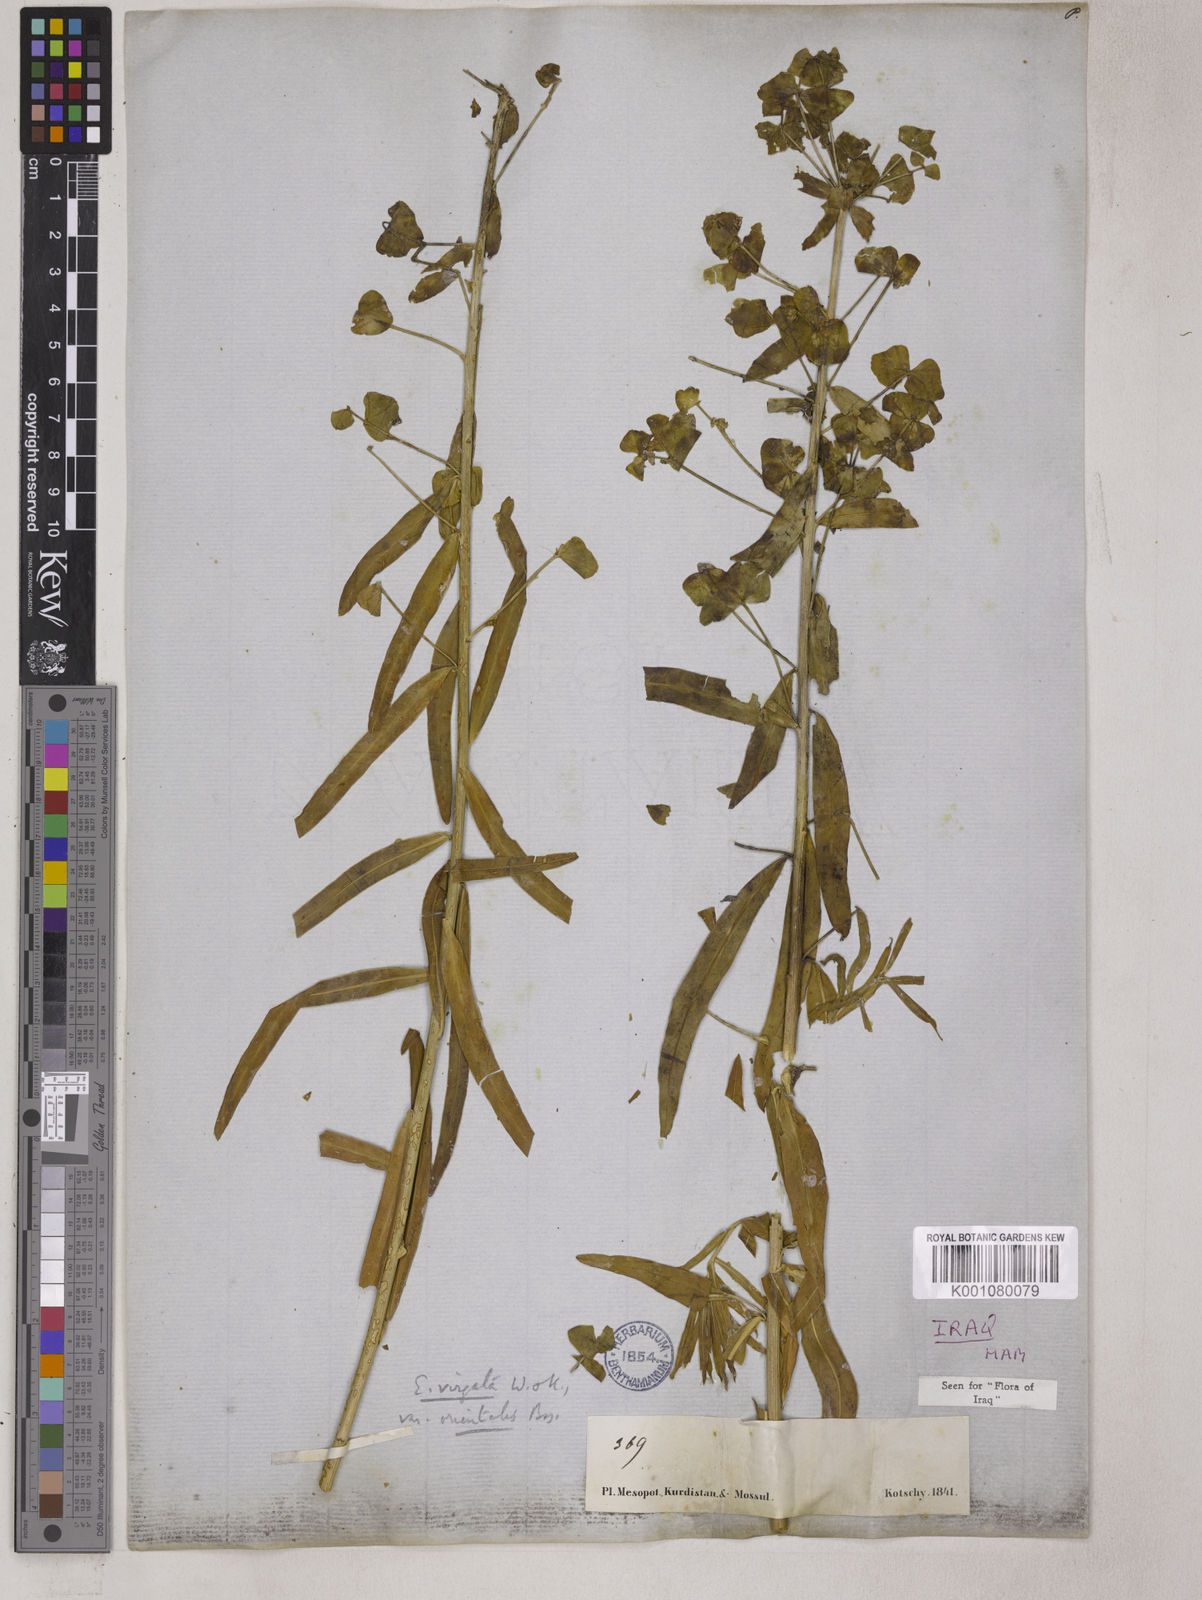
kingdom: Plantae
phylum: Tracheophyta
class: Magnoliopsida
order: Malpighiales
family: Euphorbiaceae
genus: Euphorbia
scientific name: Euphorbia virgata
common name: Leafy spurge
